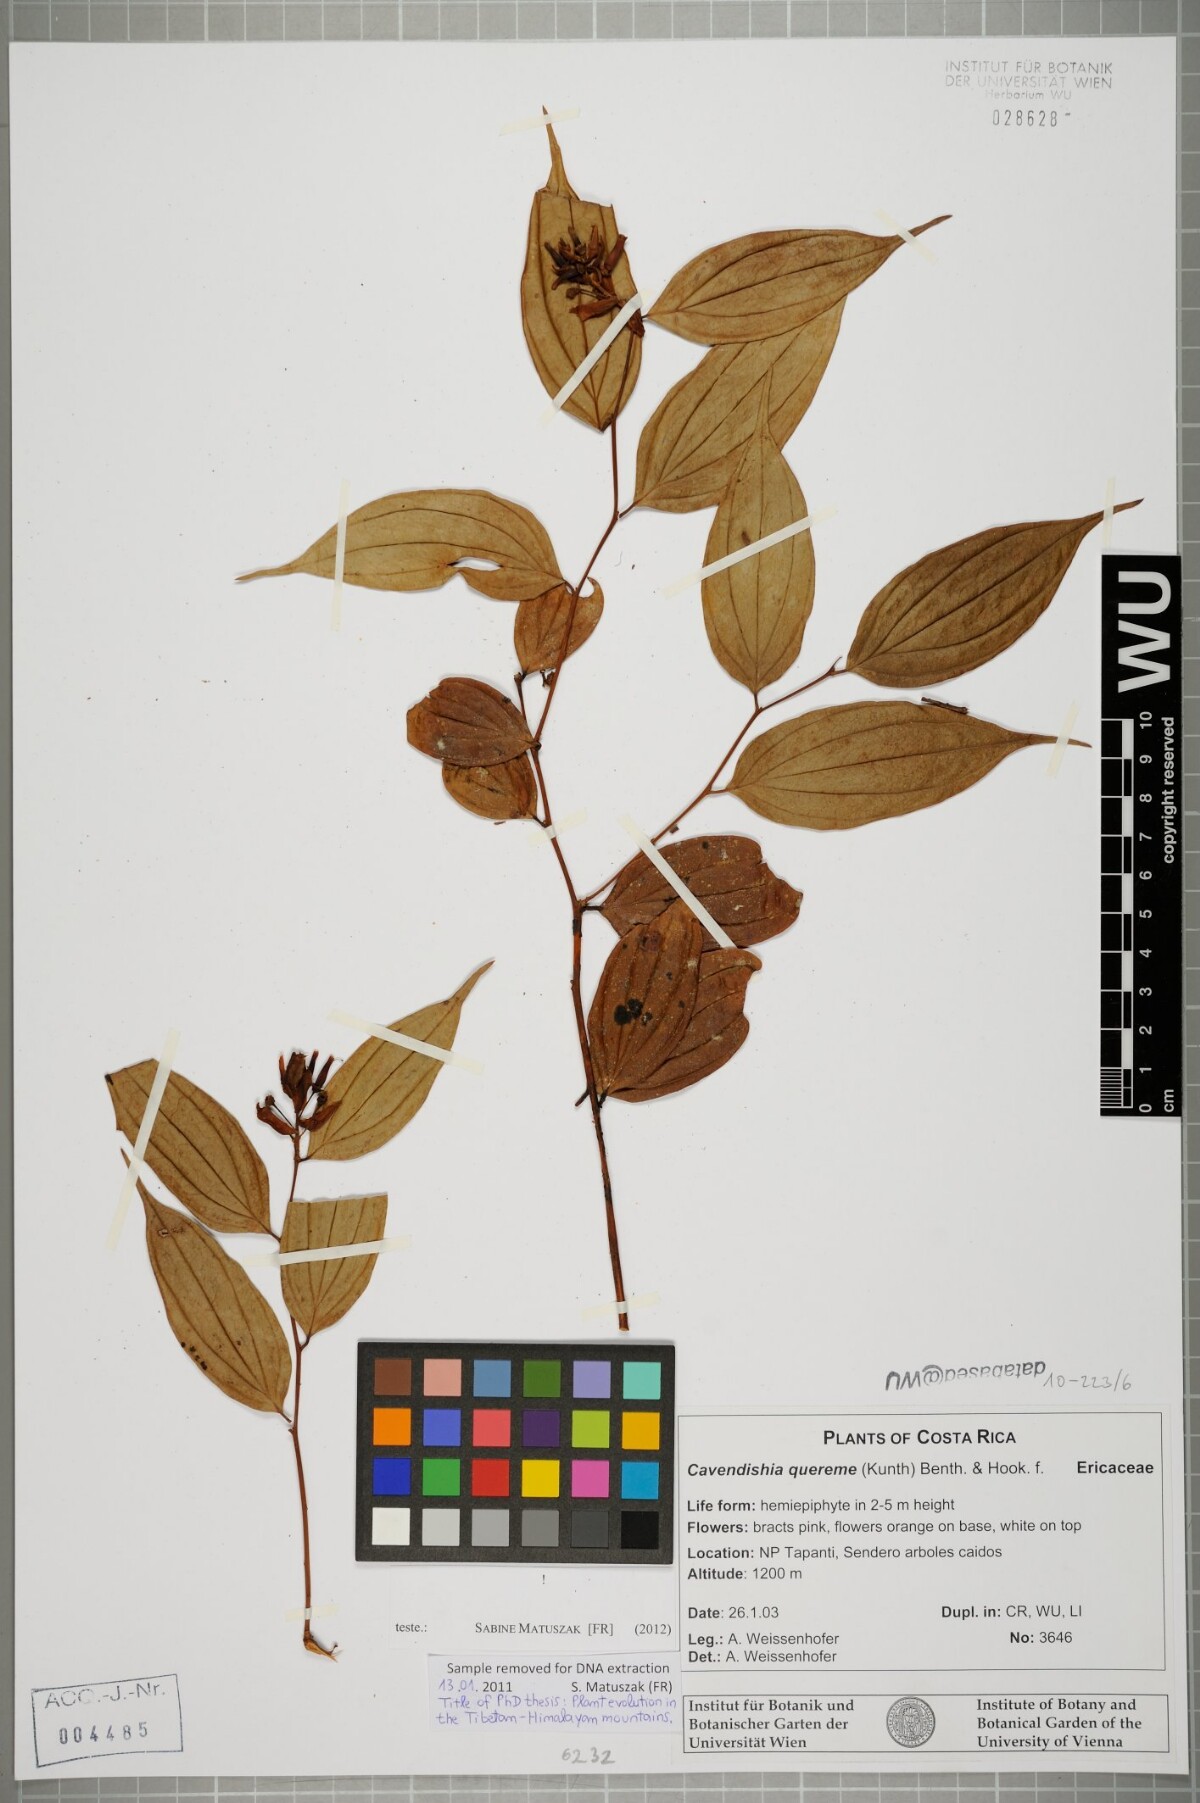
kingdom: Plantae
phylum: Tracheophyta
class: Magnoliopsida
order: Ericales
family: Ericaceae
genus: Cavendishia
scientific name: Cavendishia quereme
